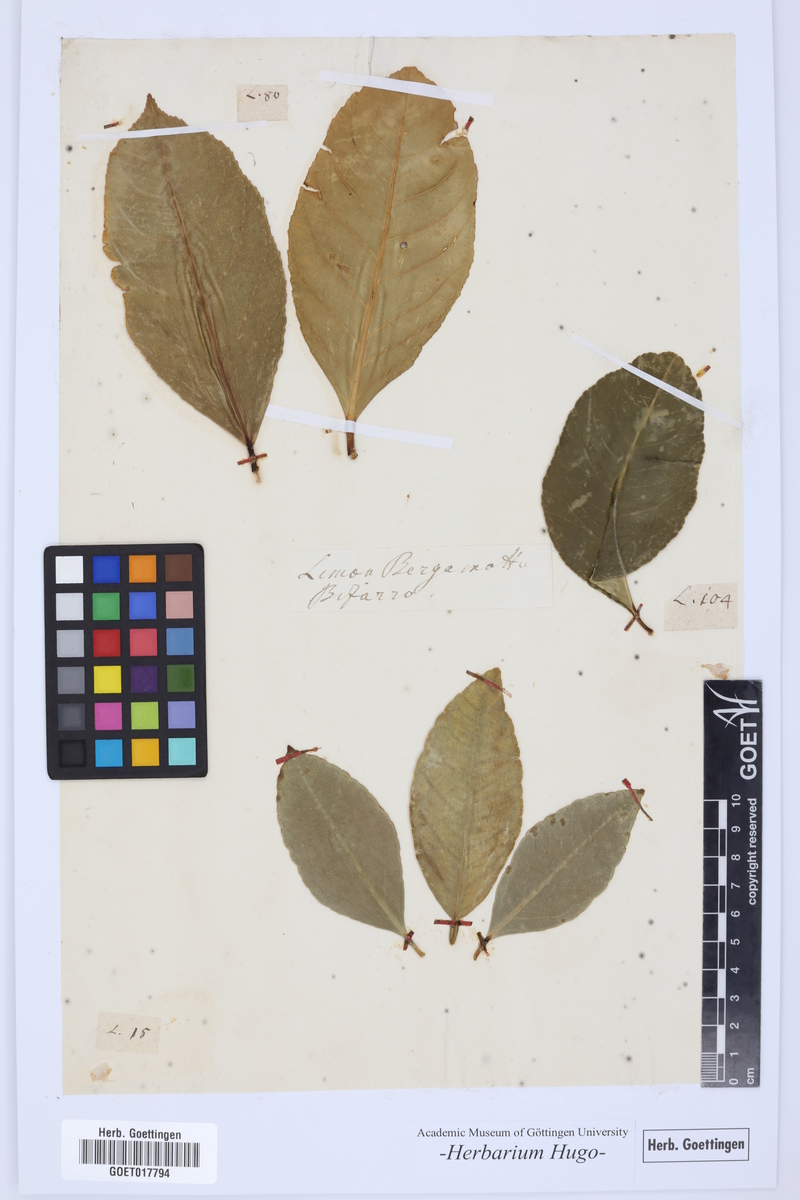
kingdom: Plantae
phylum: Tracheophyta
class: Magnoliopsida
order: Sapindales
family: Rutaceae
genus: Citrus
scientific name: Citrus
